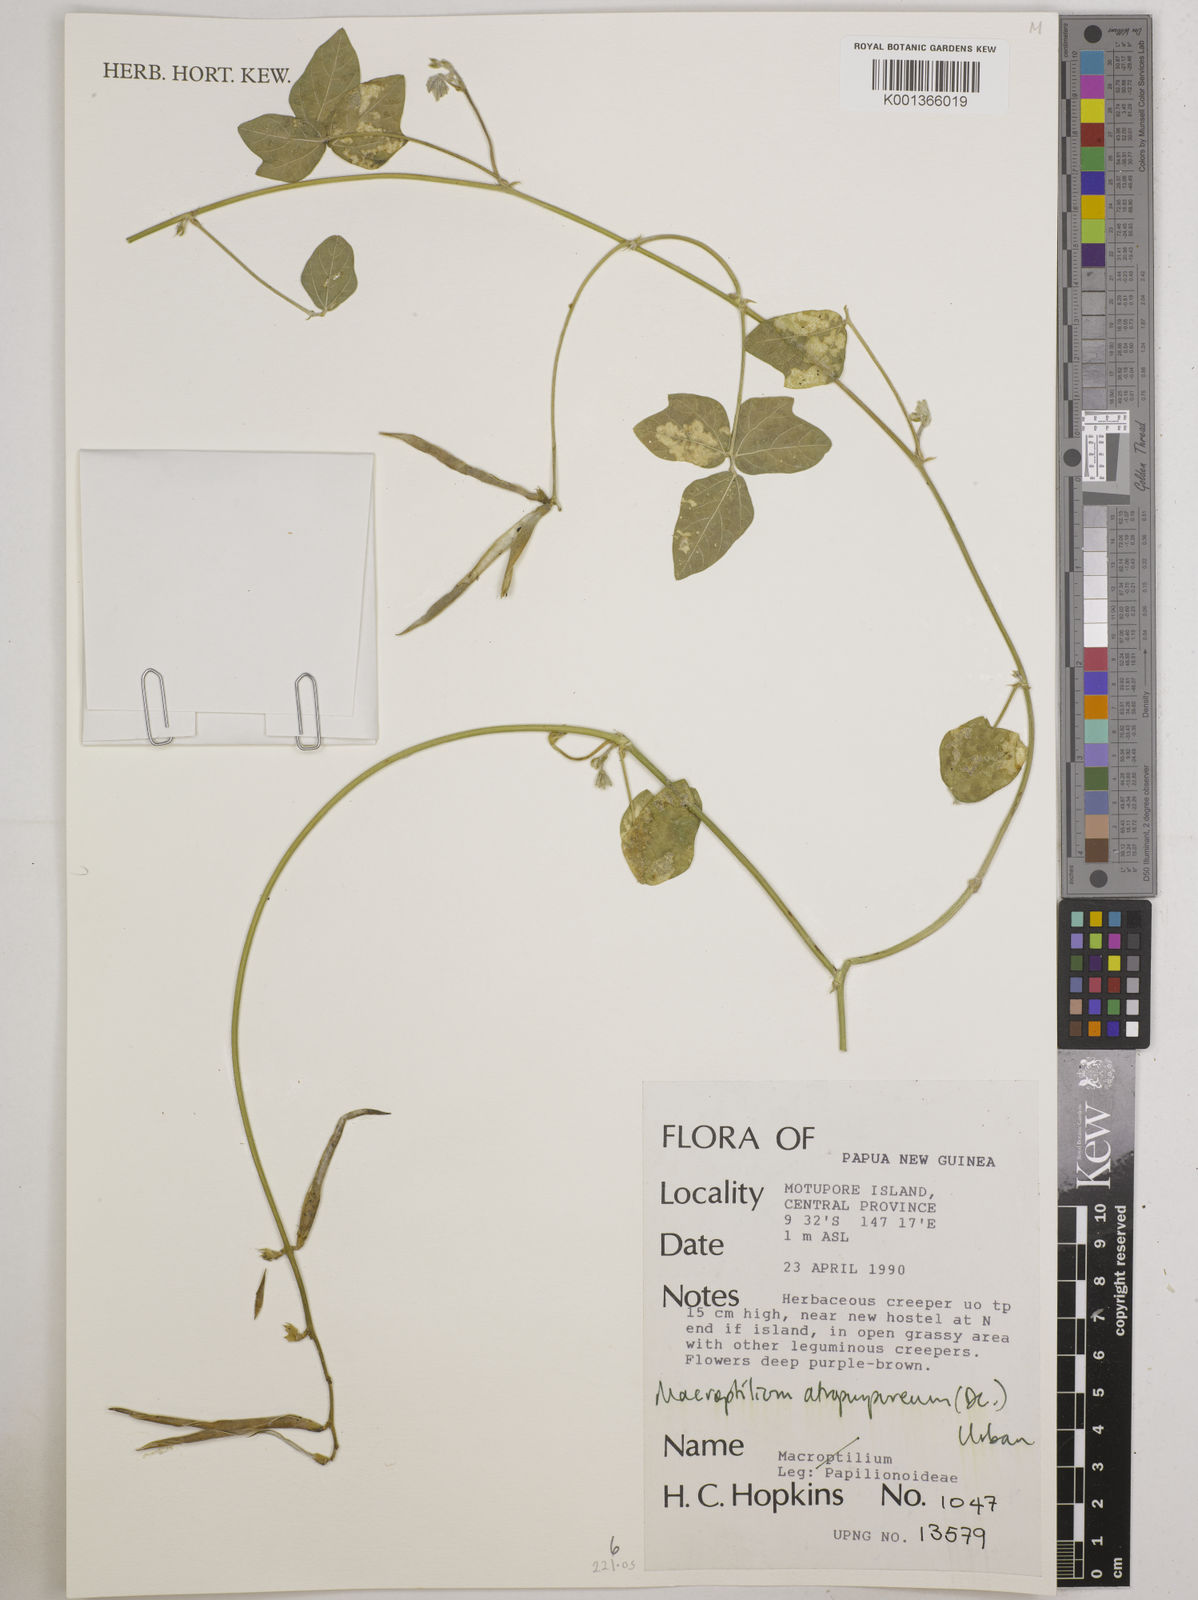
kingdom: Plantae
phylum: Tracheophyta
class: Magnoliopsida
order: Fabales
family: Fabaceae
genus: Macroptilium
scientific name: Macroptilium atropurpureum
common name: Purple bushbean
